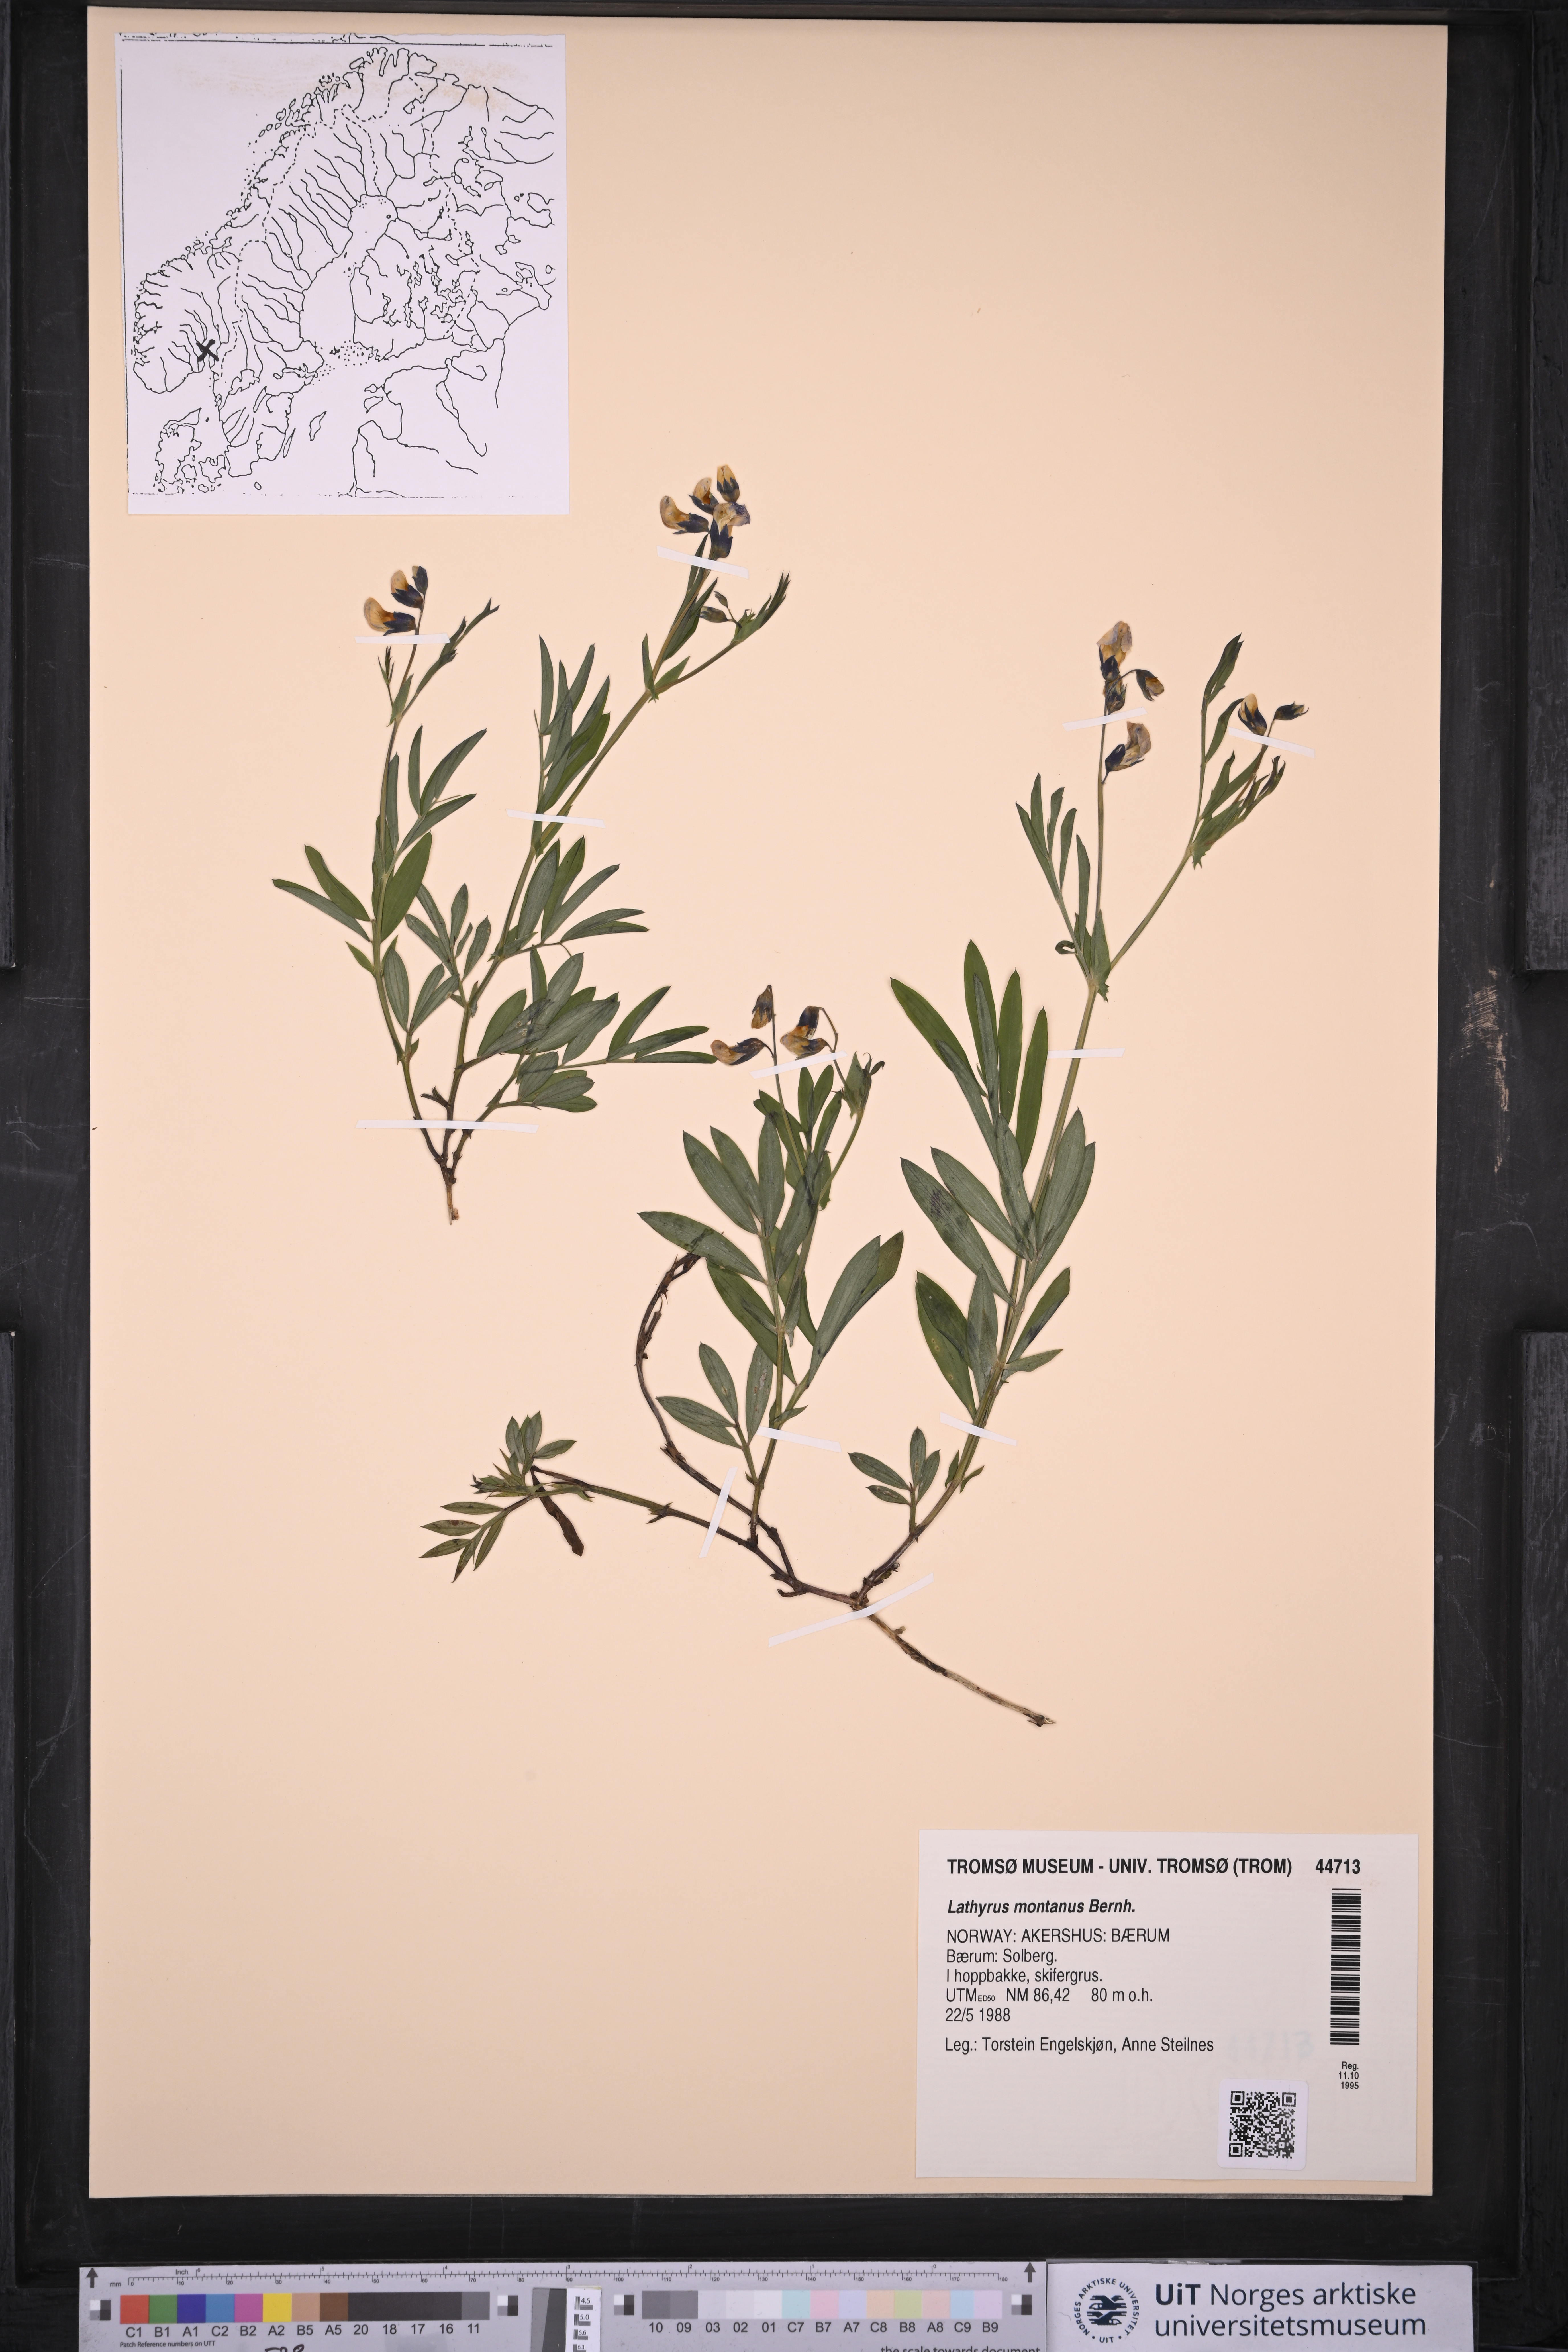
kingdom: Plantae
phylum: Tracheophyta
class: Magnoliopsida
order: Fabales
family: Fabaceae
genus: Lathyrus
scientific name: Lathyrus linifolius
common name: Bitter-vetch
